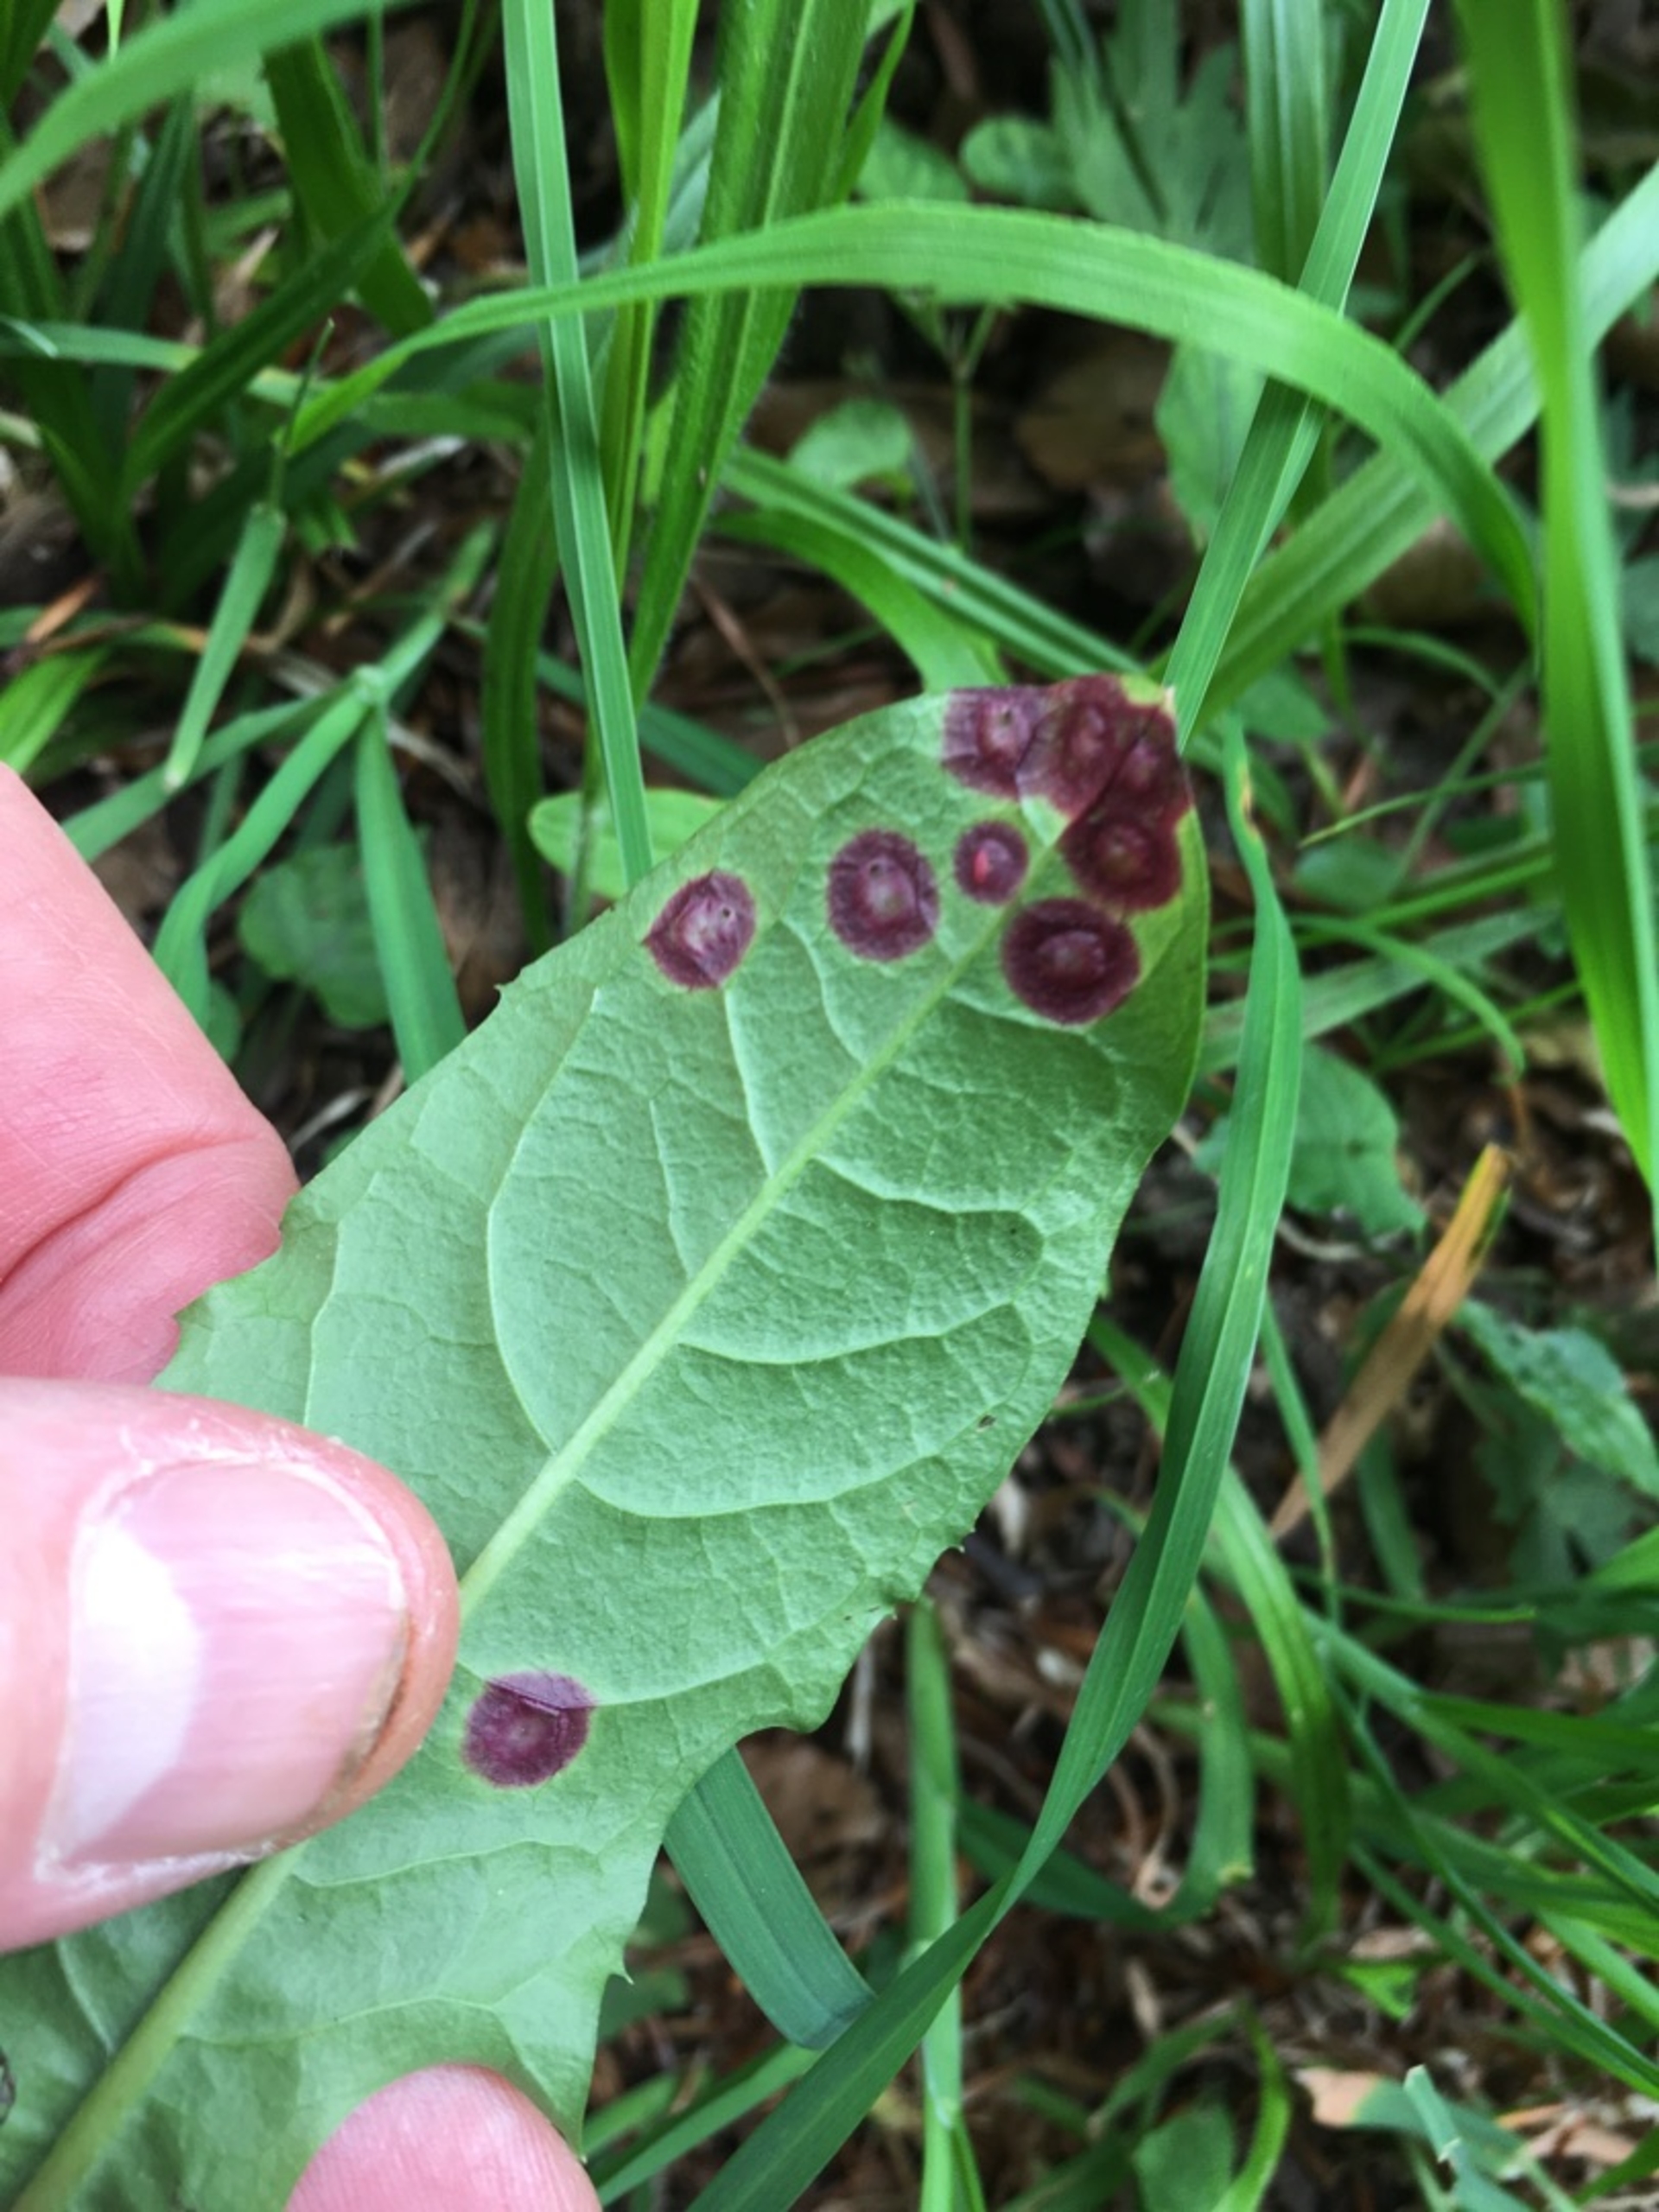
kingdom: Animalia
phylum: Arthropoda
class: Insecta
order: Diptera
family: Cecidomyiidae
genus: Cystiphora
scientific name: Cystiphora taraxaci
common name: Mælkebøttegalmyg
